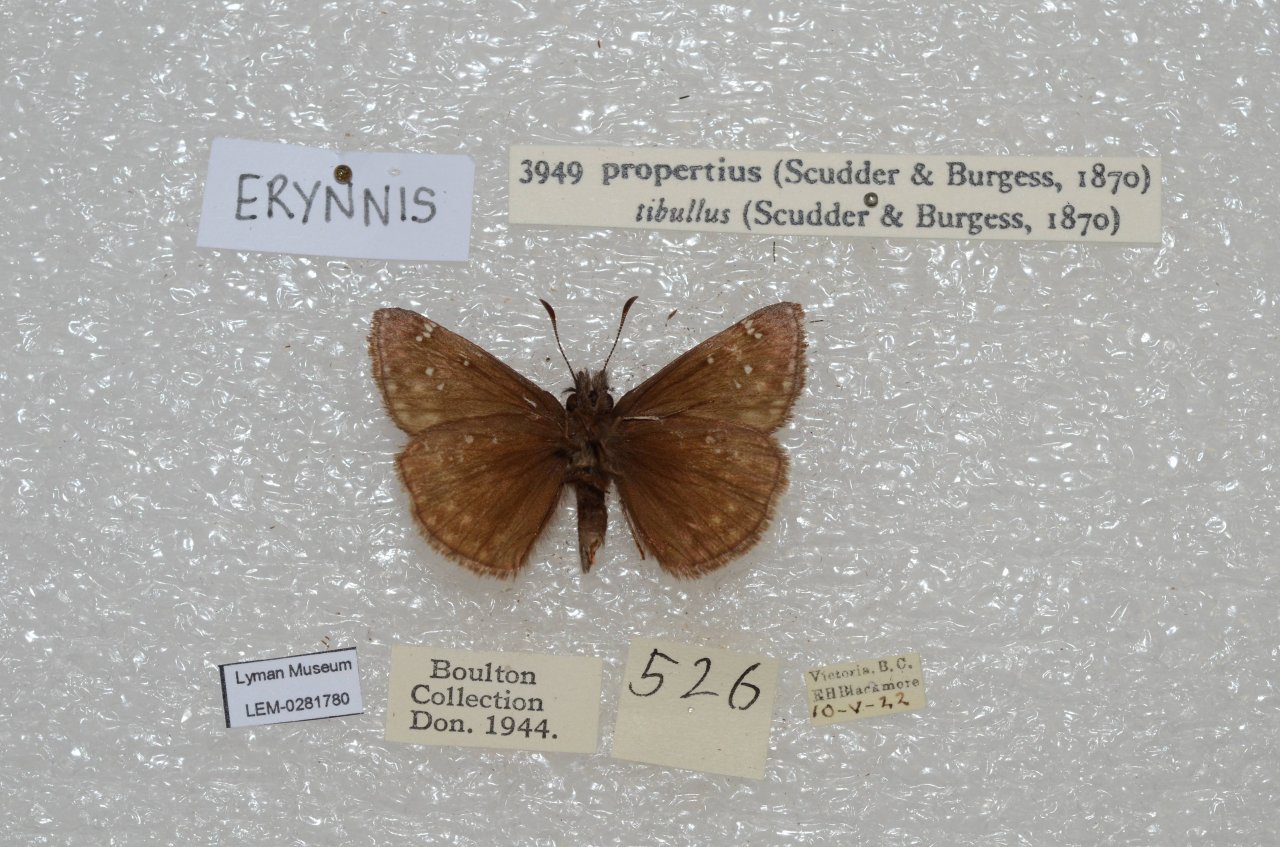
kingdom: Animalia
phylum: Arthropoda
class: Insecta
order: Lepidoptera
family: Hesperiidae
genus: Erynnis
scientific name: Erynnis propertius
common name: Propertius Duskywing
